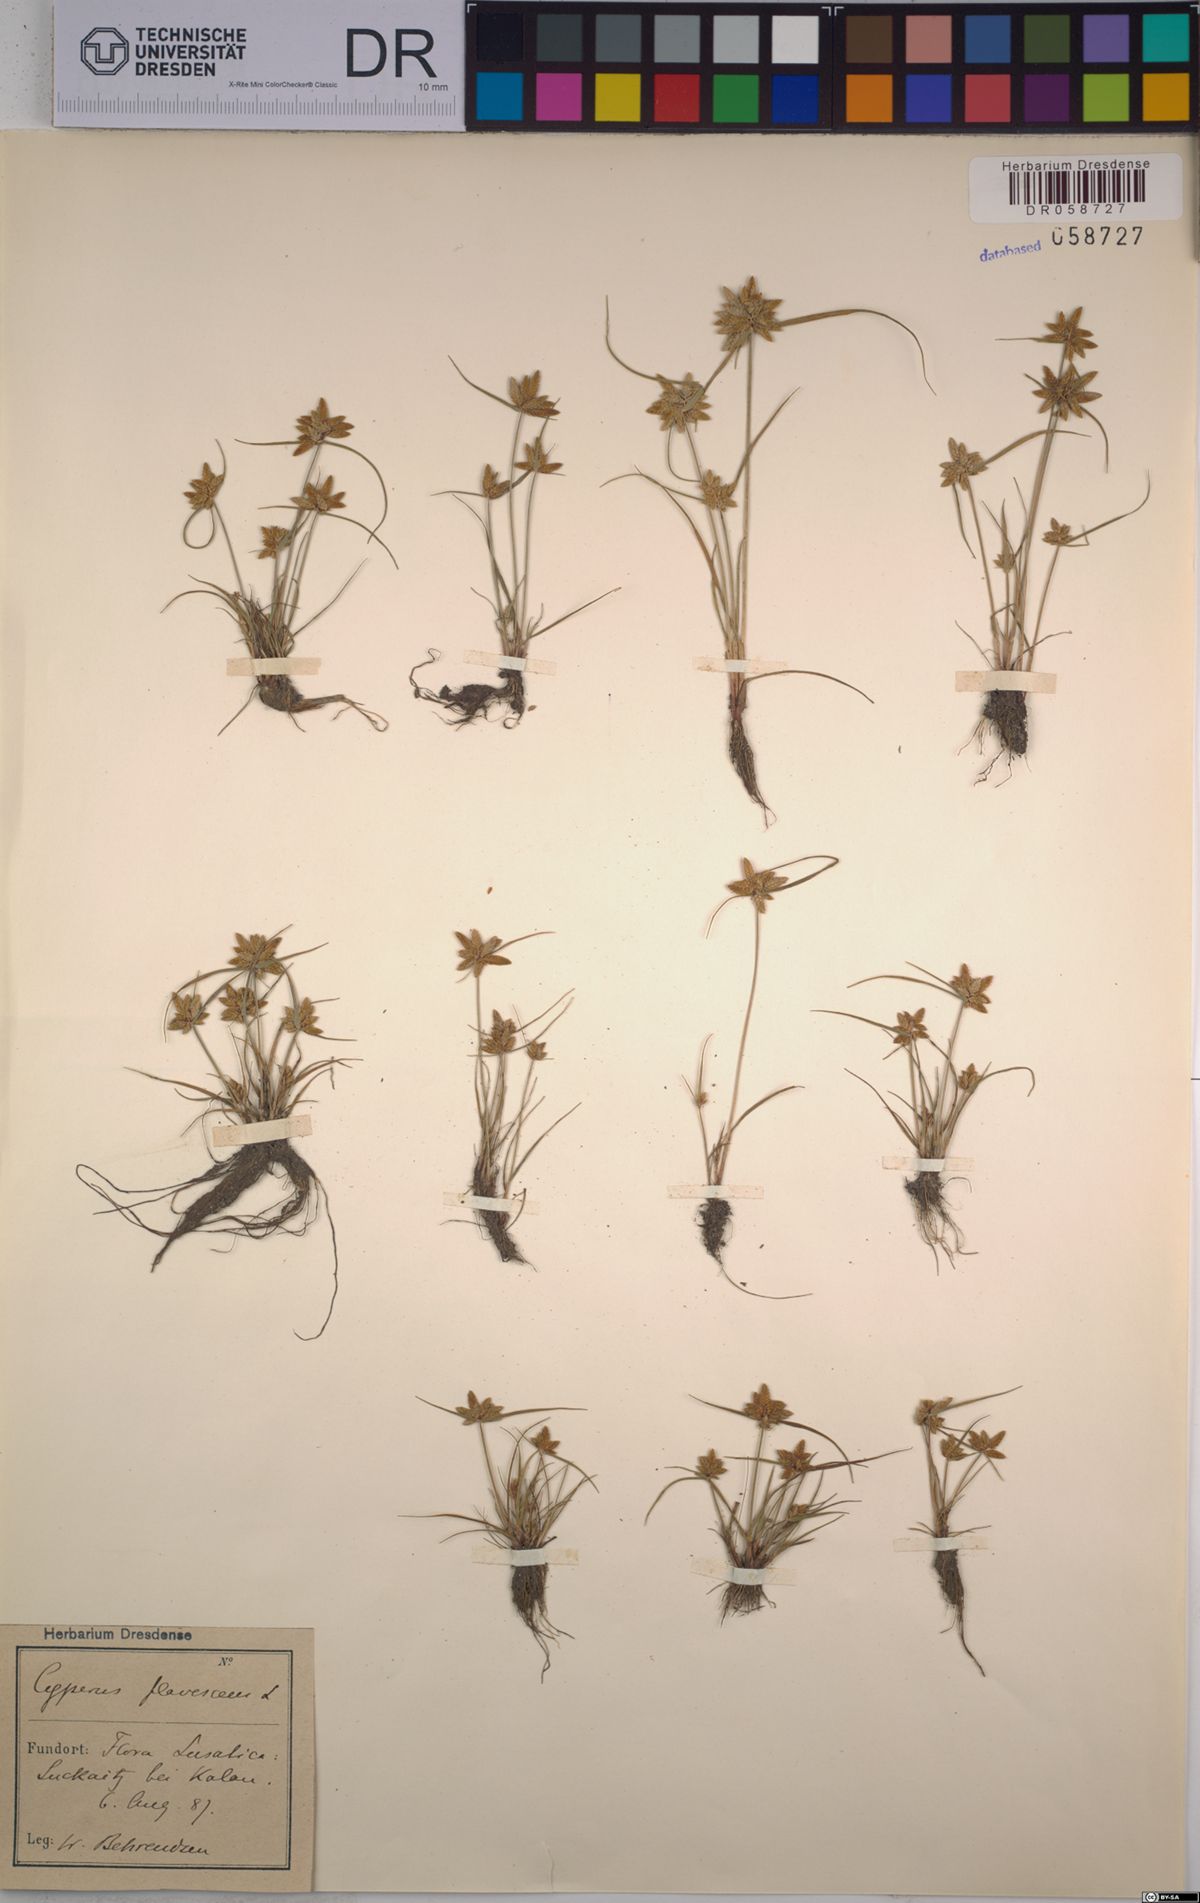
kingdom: Plantae
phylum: Tracheophyta
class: Liliopsida
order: Poales
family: Cyperaceae
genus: Cyperus
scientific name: Cyperus flavescens
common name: Yellow galingale
